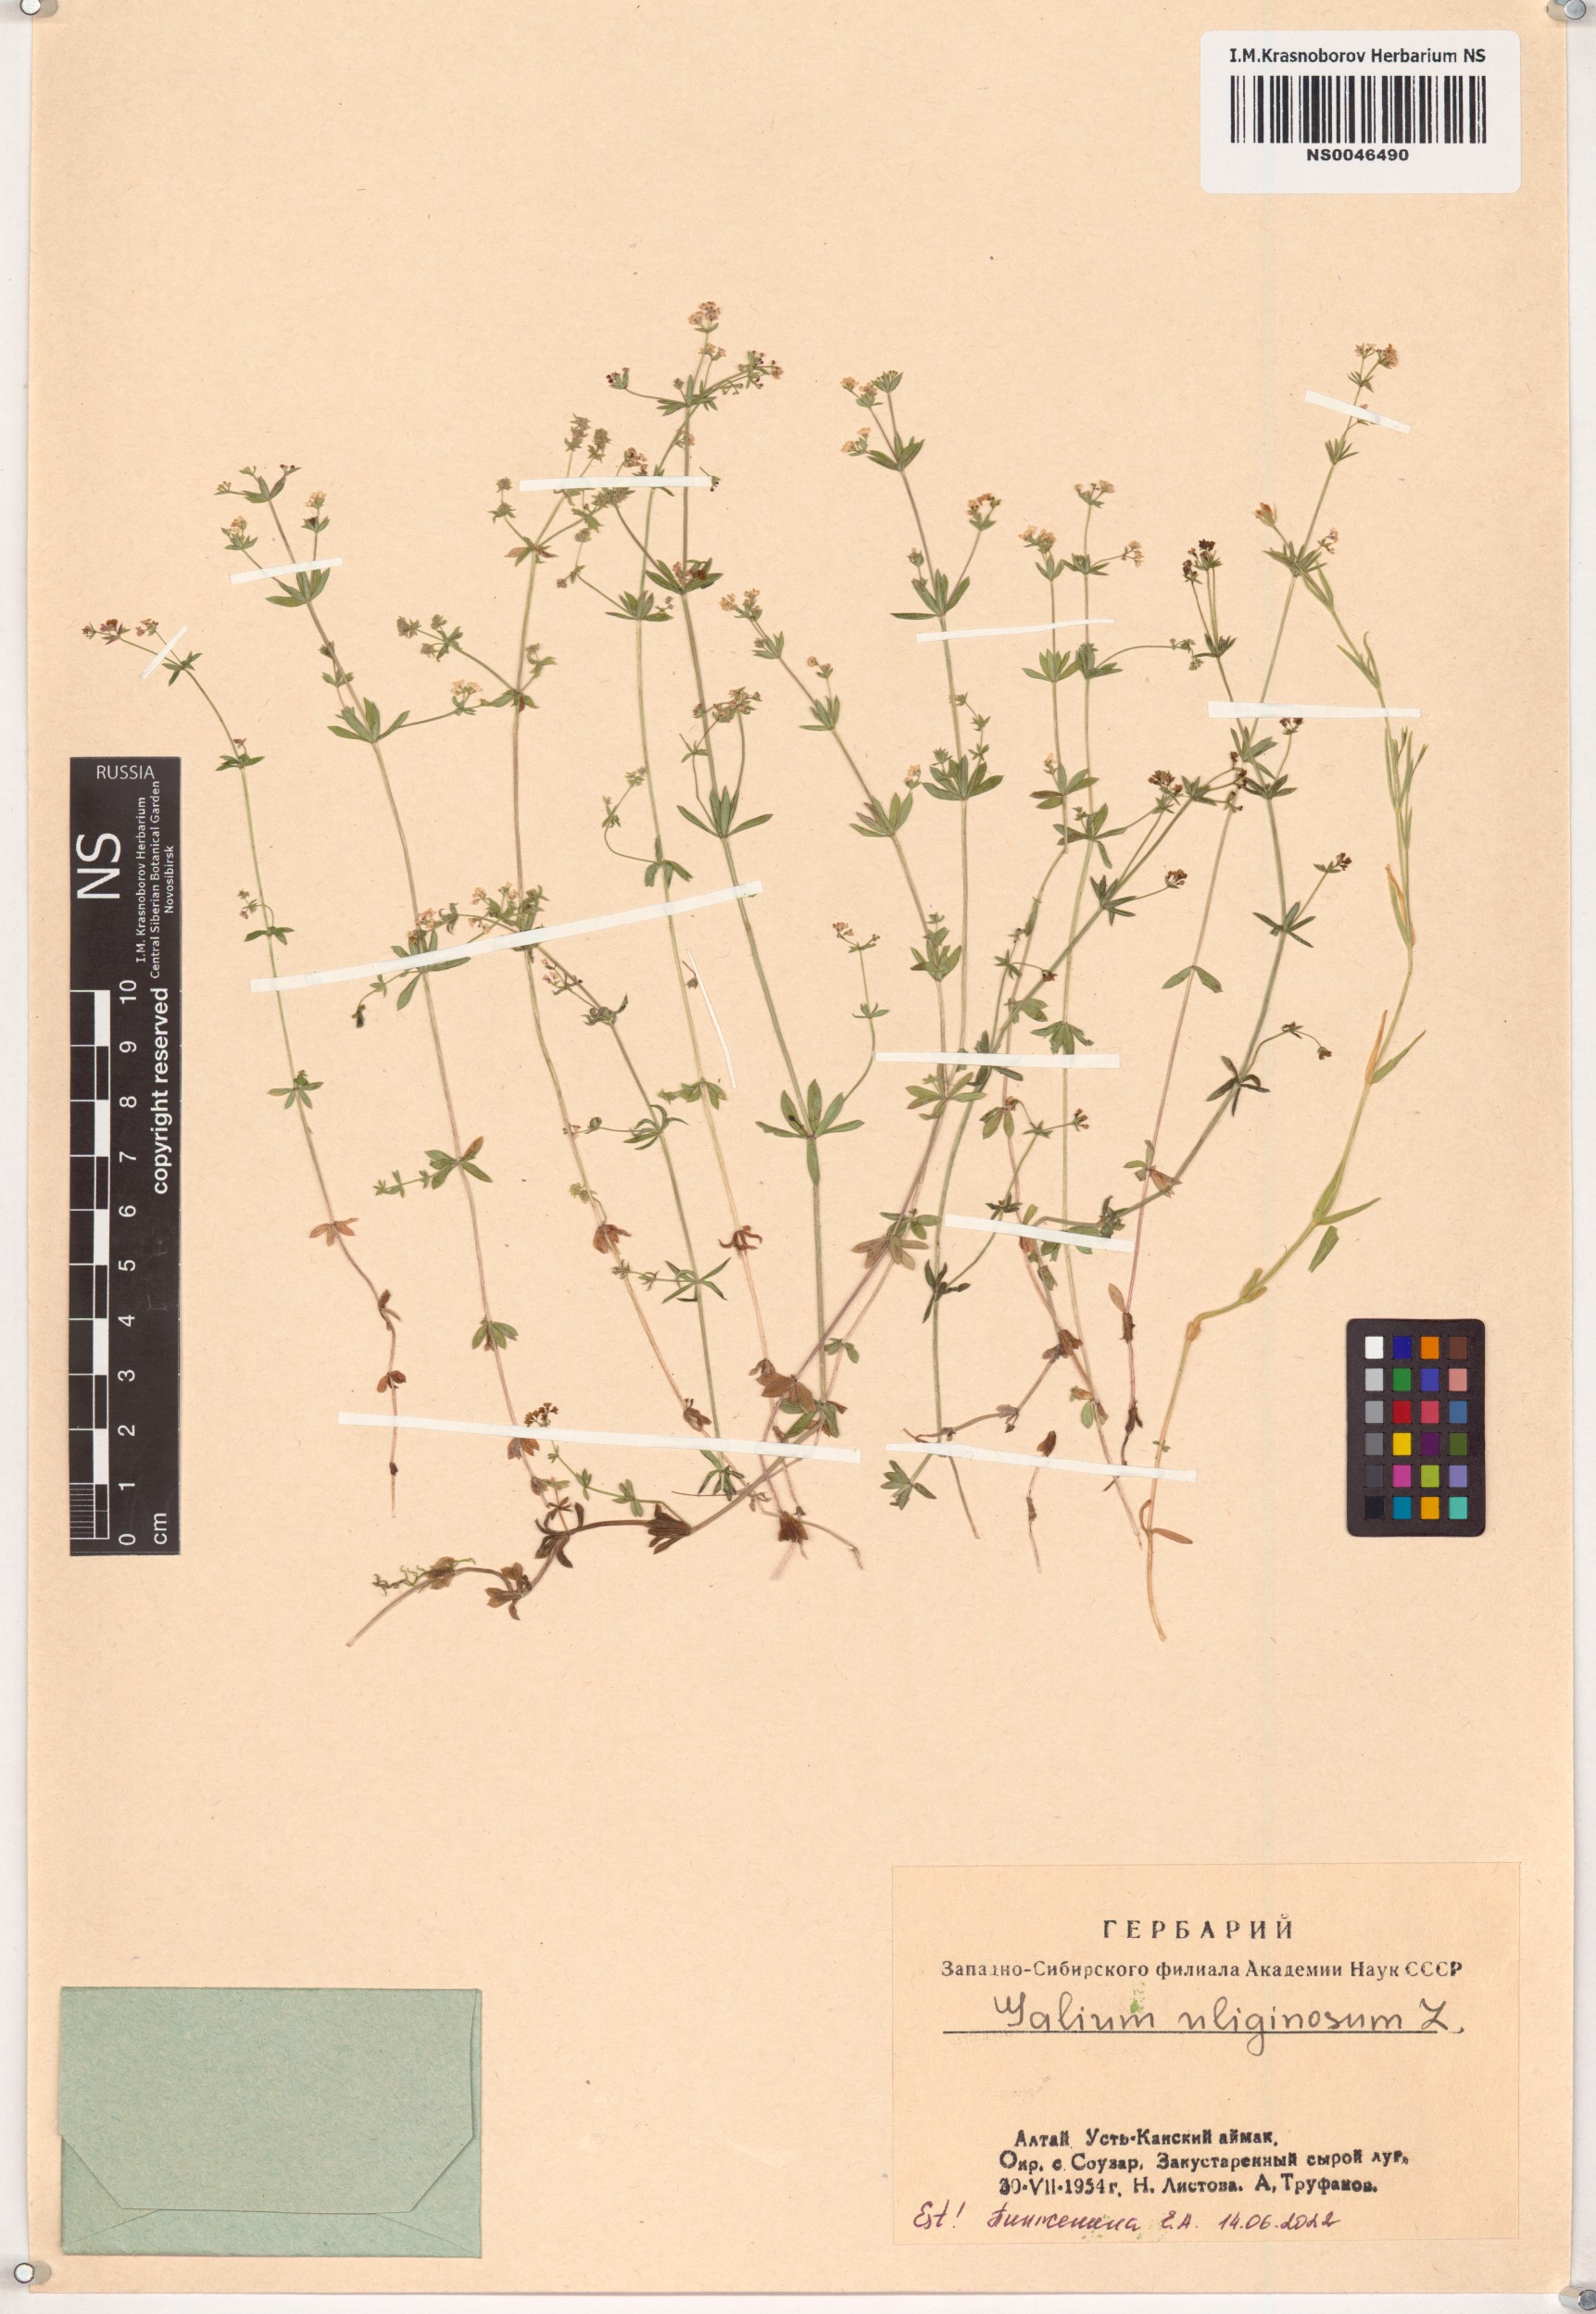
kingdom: Plantae
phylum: Tracheophyta
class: Magnoliopsida
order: Gentianales
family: Rubiaceae
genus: Galium
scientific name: Galium uliginosum
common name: Fen bedstraw
